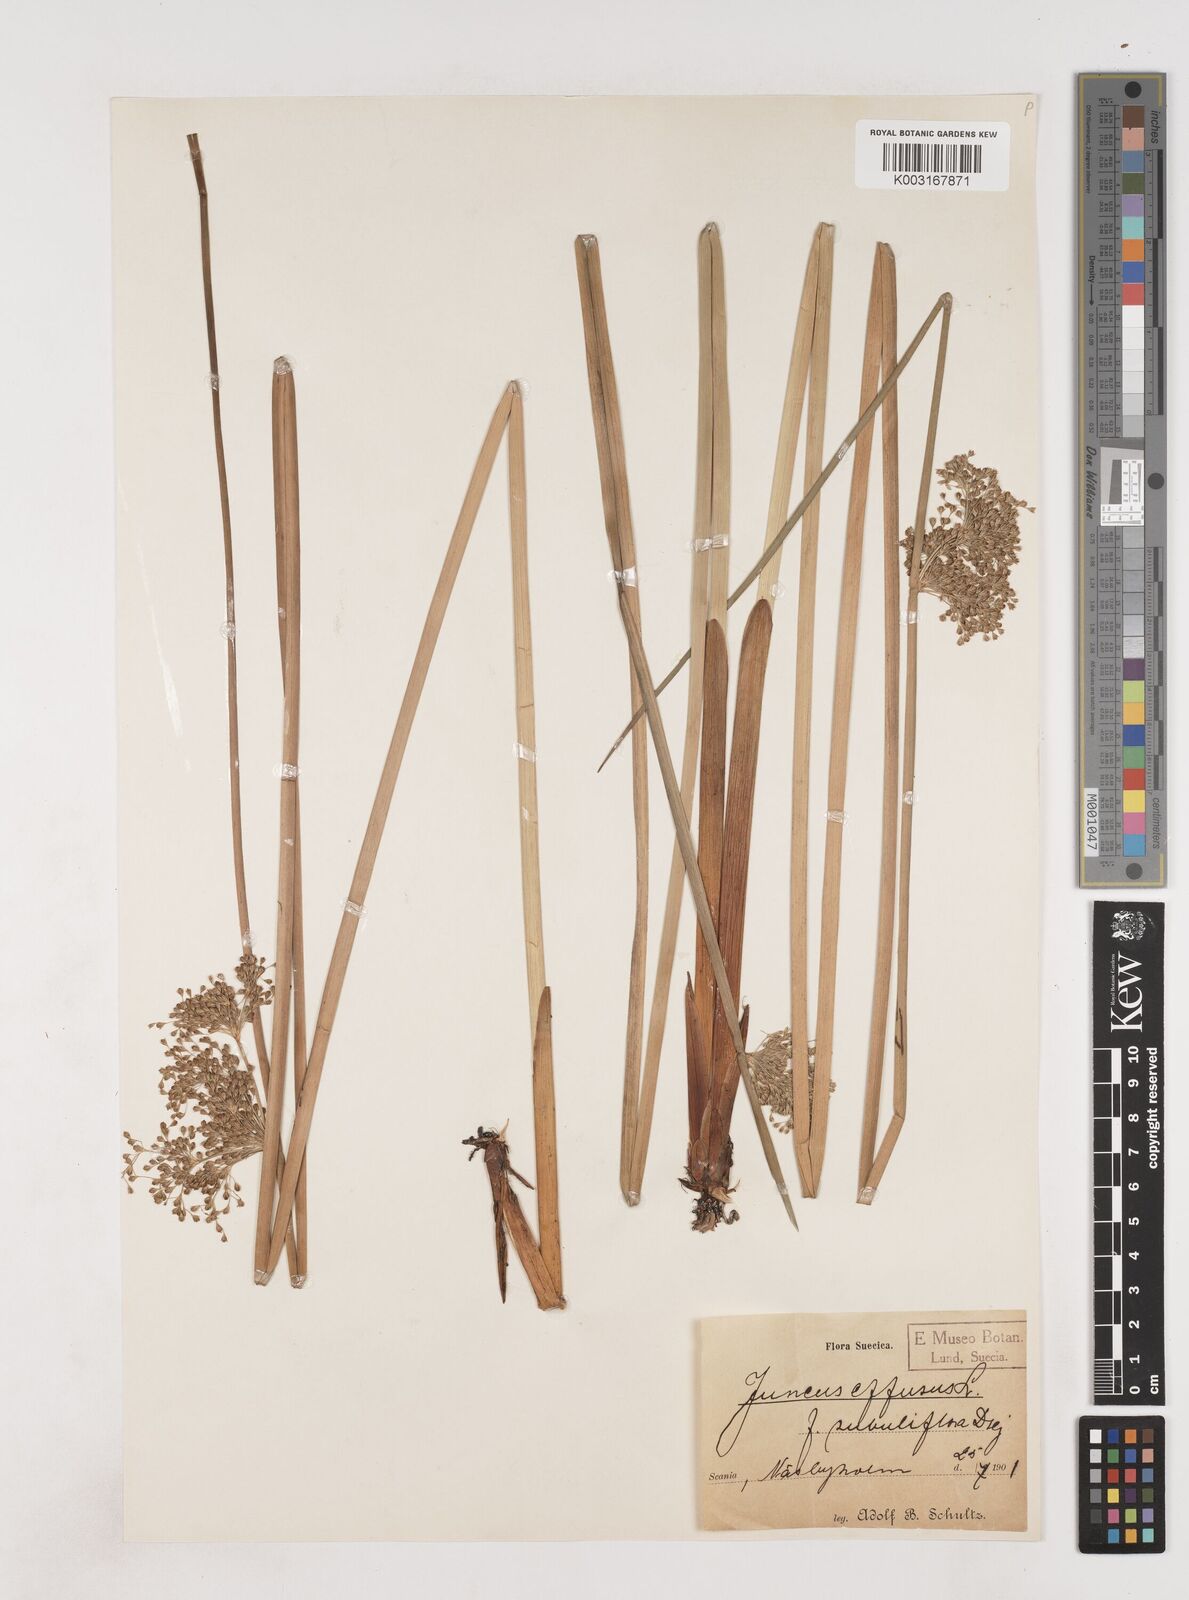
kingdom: Plantae
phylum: Tracheophyta
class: Liliopsida
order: Poales
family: Juncaceae
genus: Juncus
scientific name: Juncus effusus
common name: Soft rush
